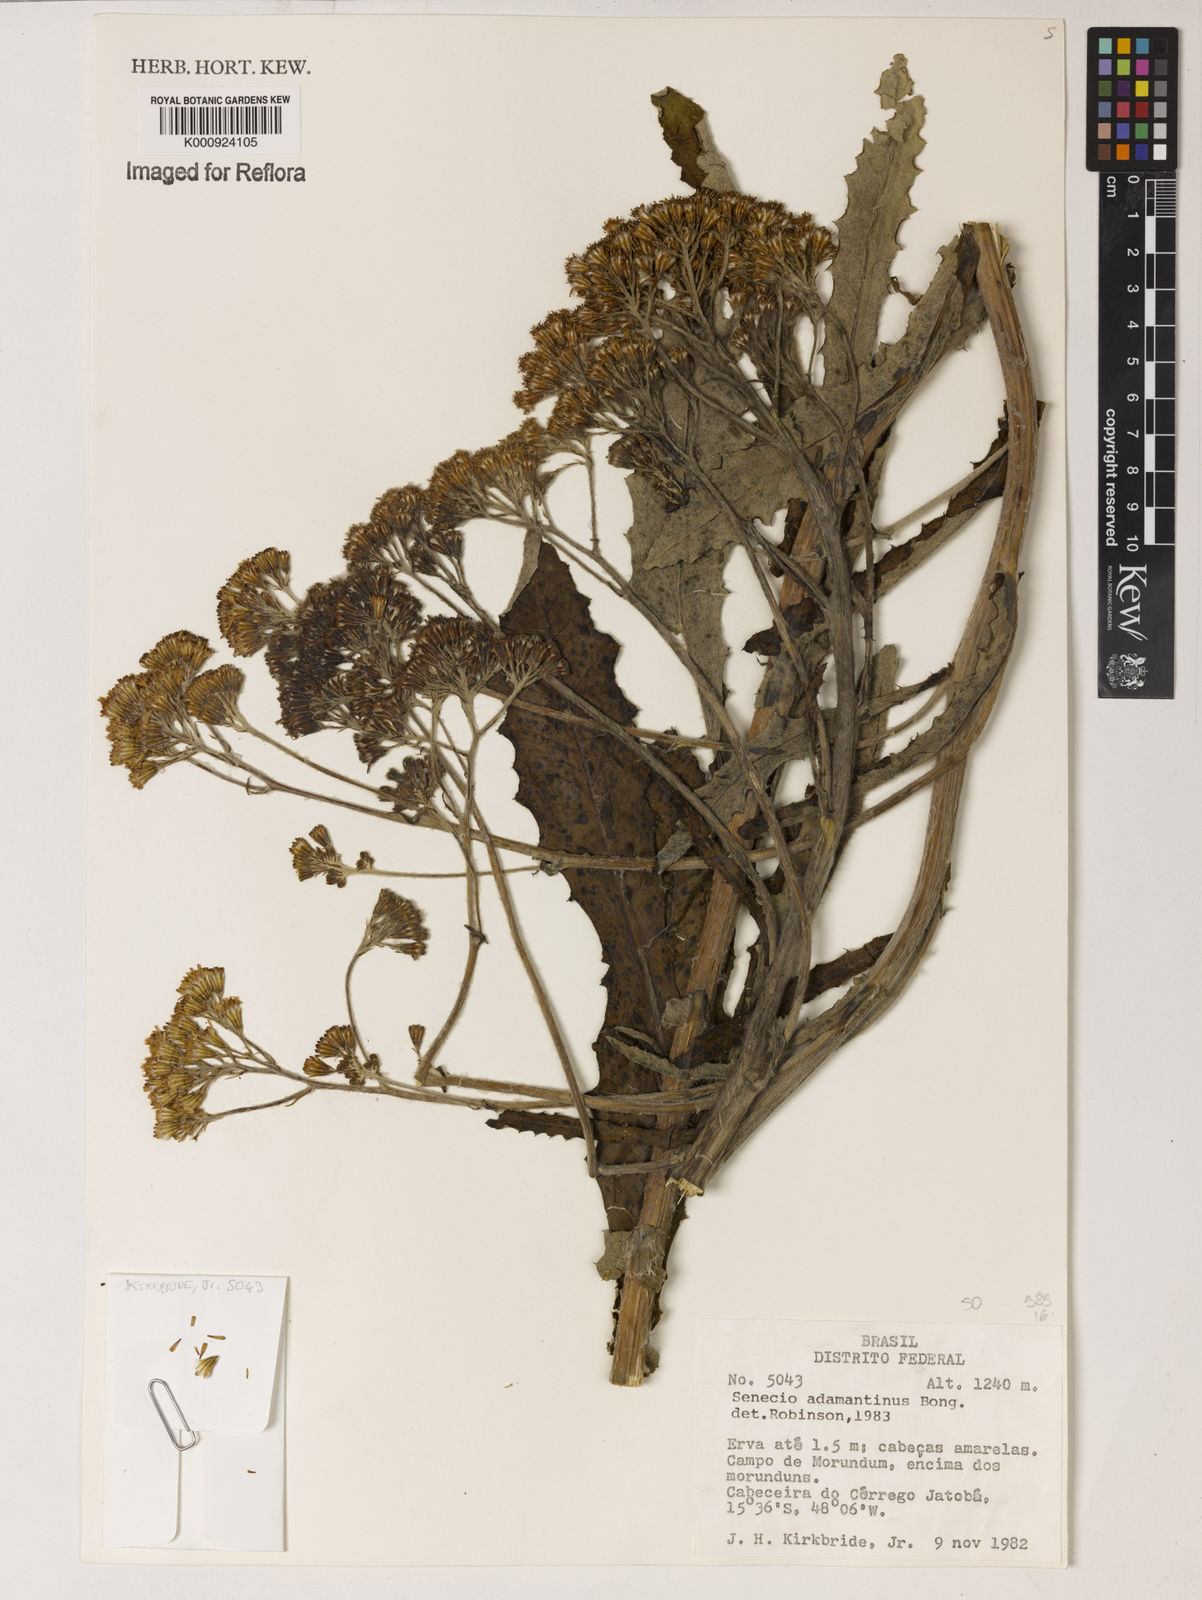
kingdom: Plantae
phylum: Tracheophyta
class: Magnoliopsida
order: Asterales
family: Asteraceae
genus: Senecio
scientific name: Senecio
